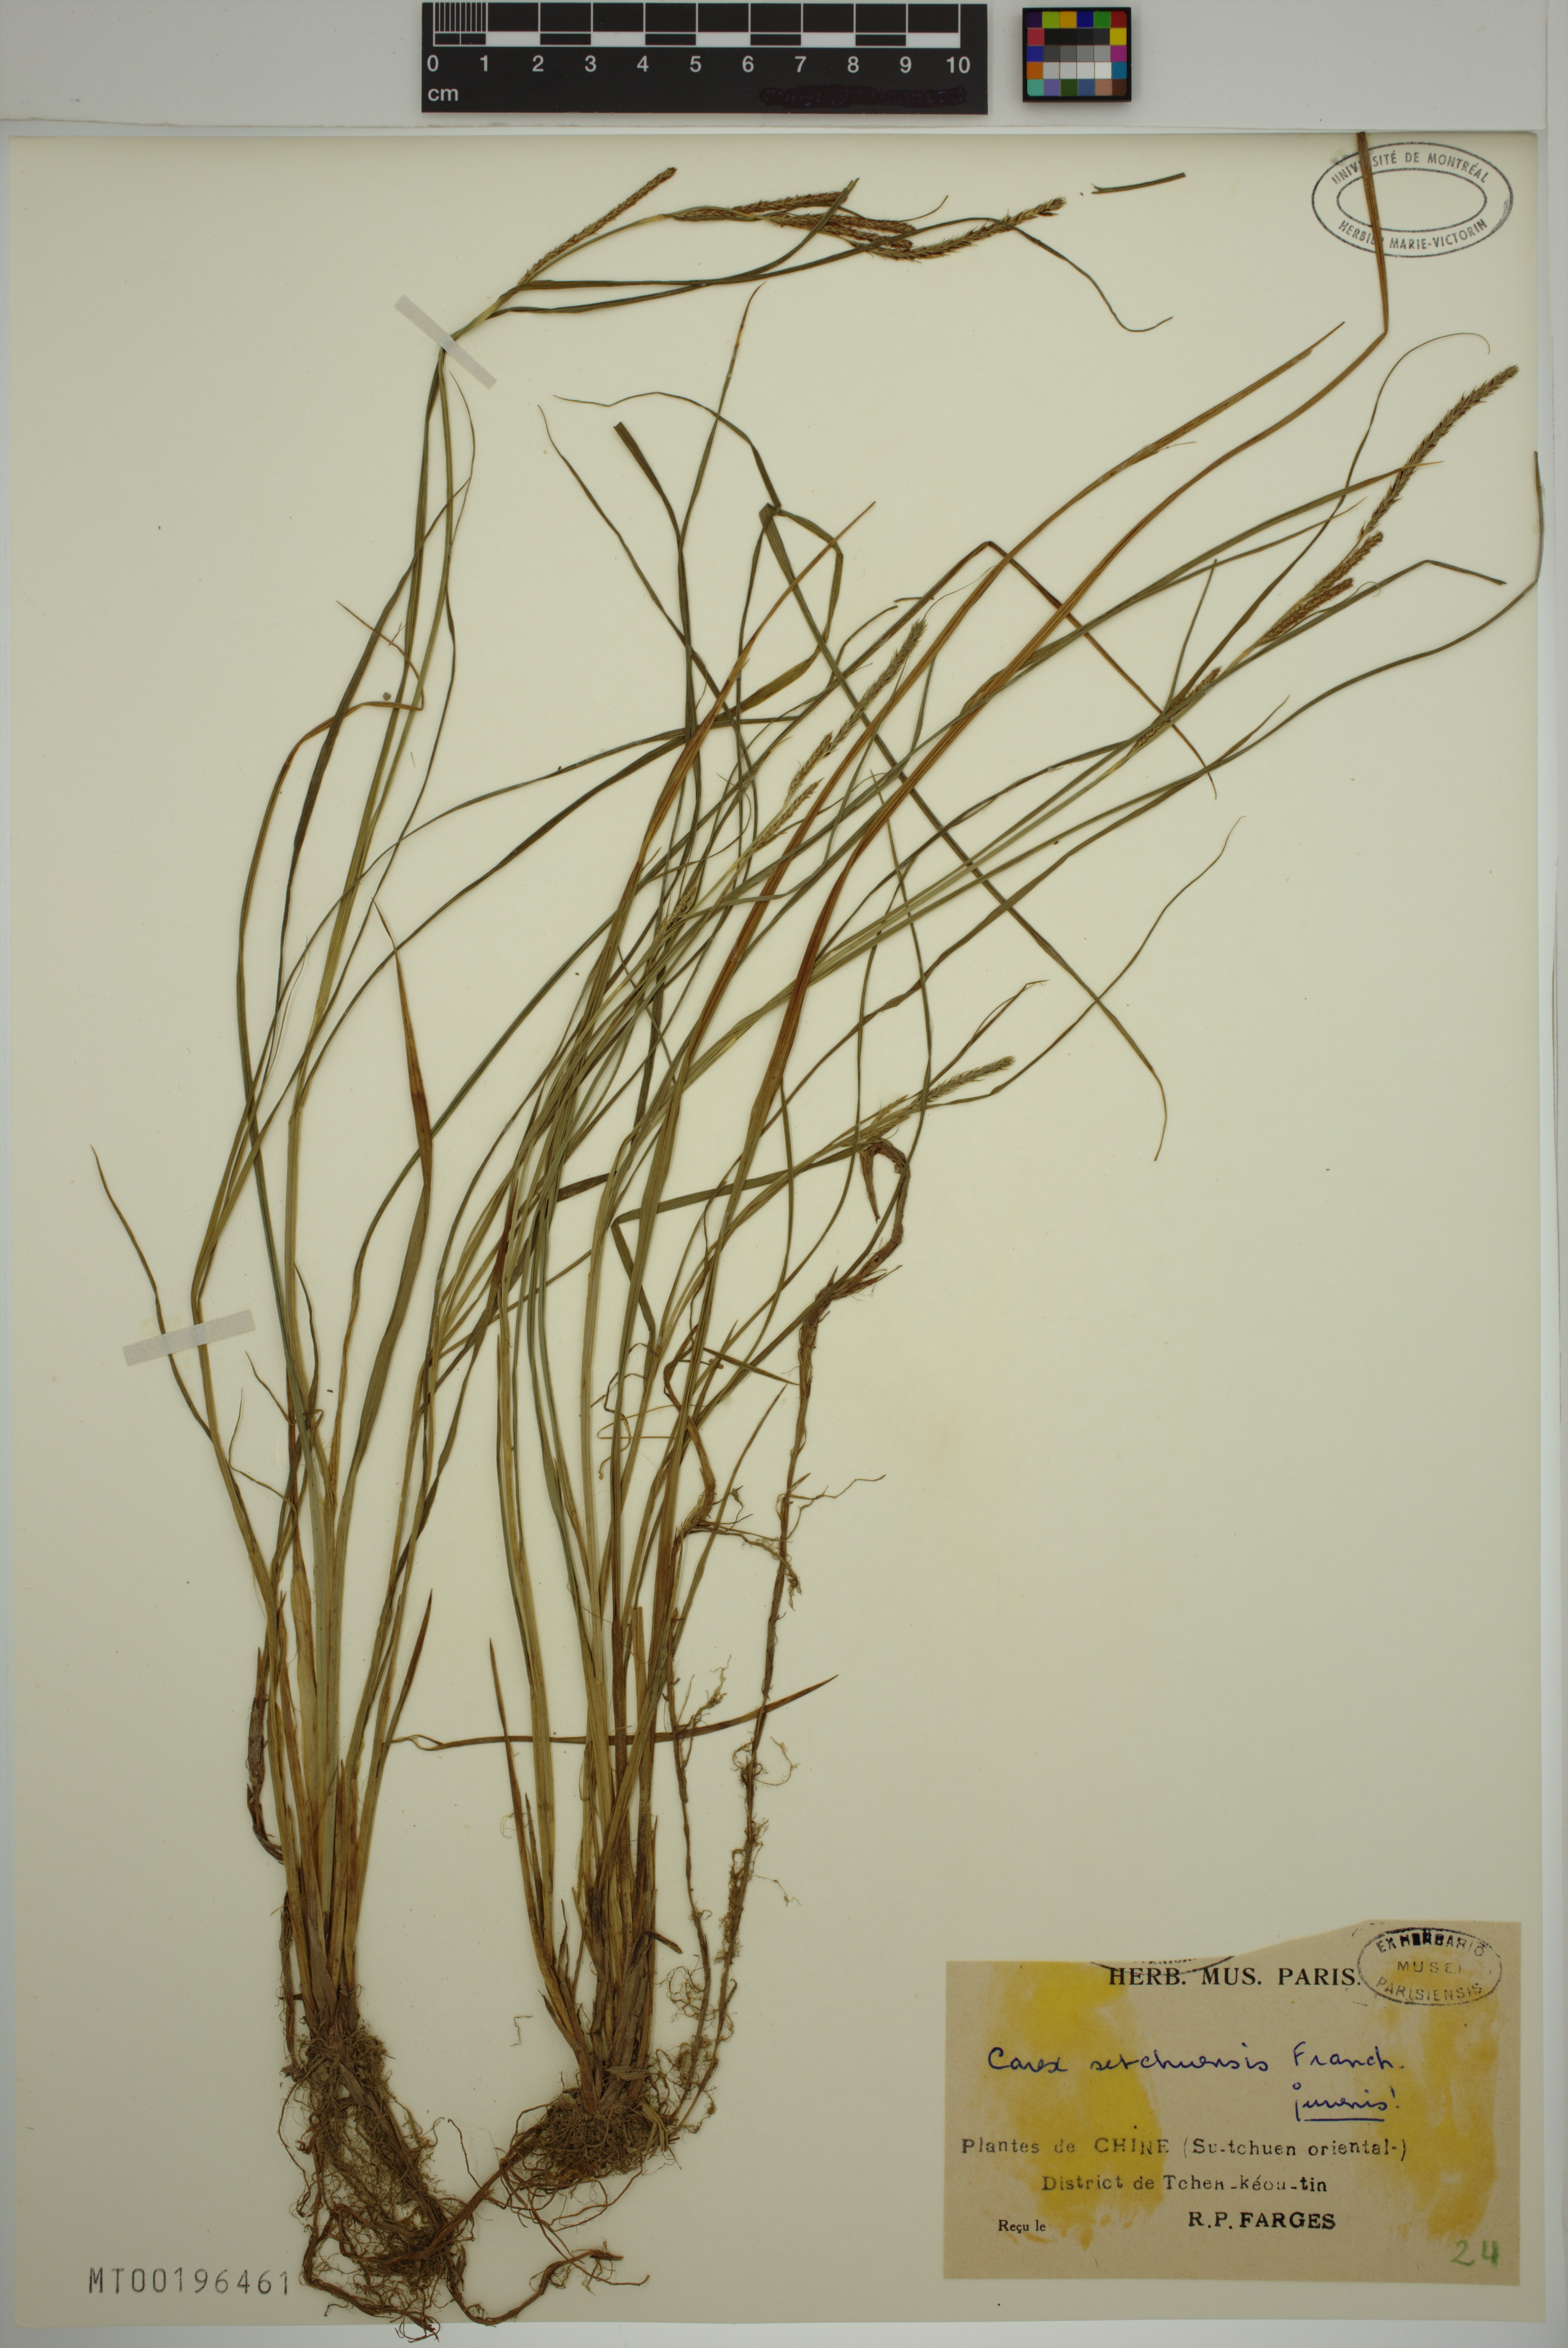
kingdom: Plantae
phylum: Tracheophyta
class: Liliopsida
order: Poales
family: Cyperaceae
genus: Carex
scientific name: Carex sutchuensis
